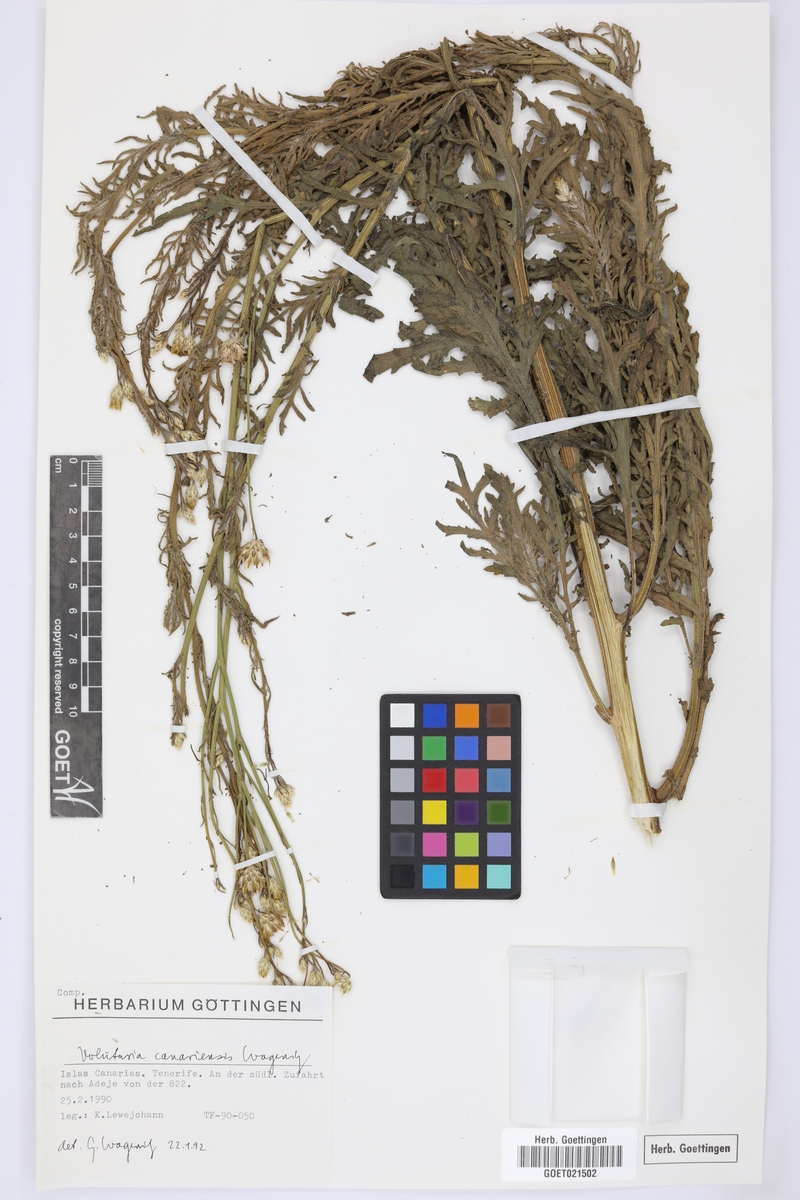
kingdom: Plantae
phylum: Tracheophyta
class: Magnoliopsida
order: Asterales
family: Asteraceae
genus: Volutaria
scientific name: Volutaria canariensis
